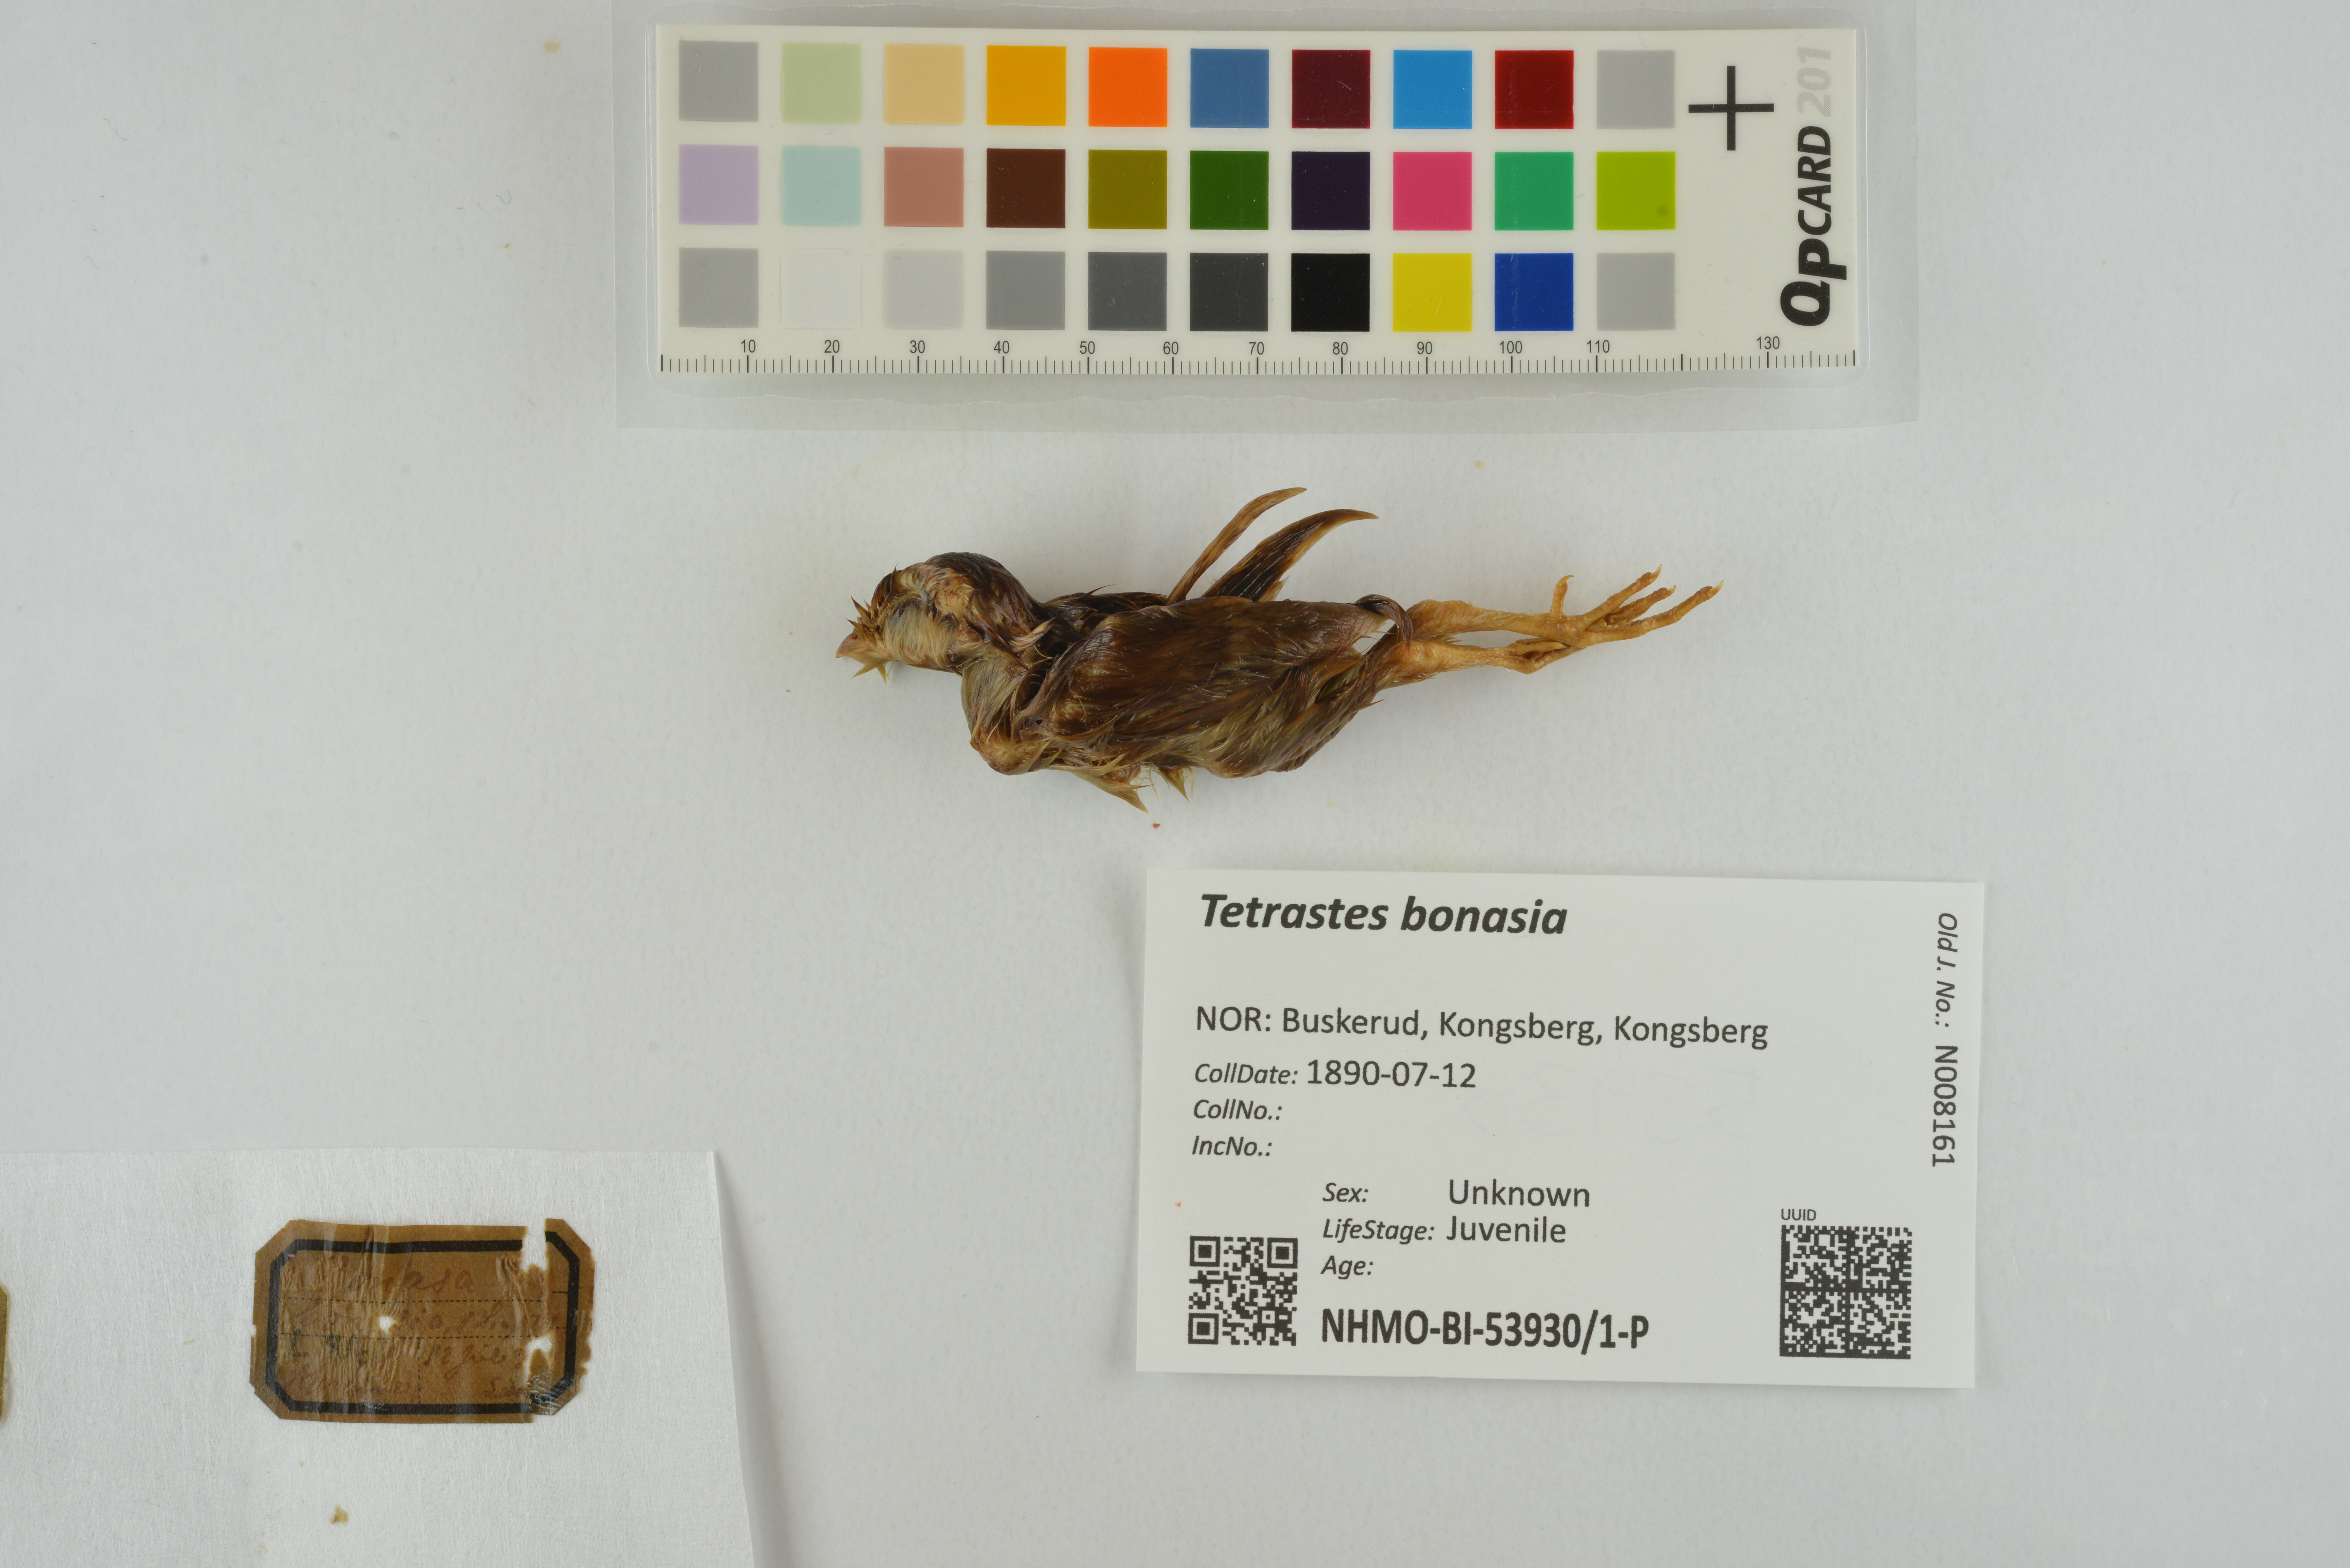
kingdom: Animalia
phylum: Chordata
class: Aves
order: Galliformes
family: Phasianidae
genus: Tetrastes
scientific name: Tetrastes bonasia
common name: Hazel grouse
